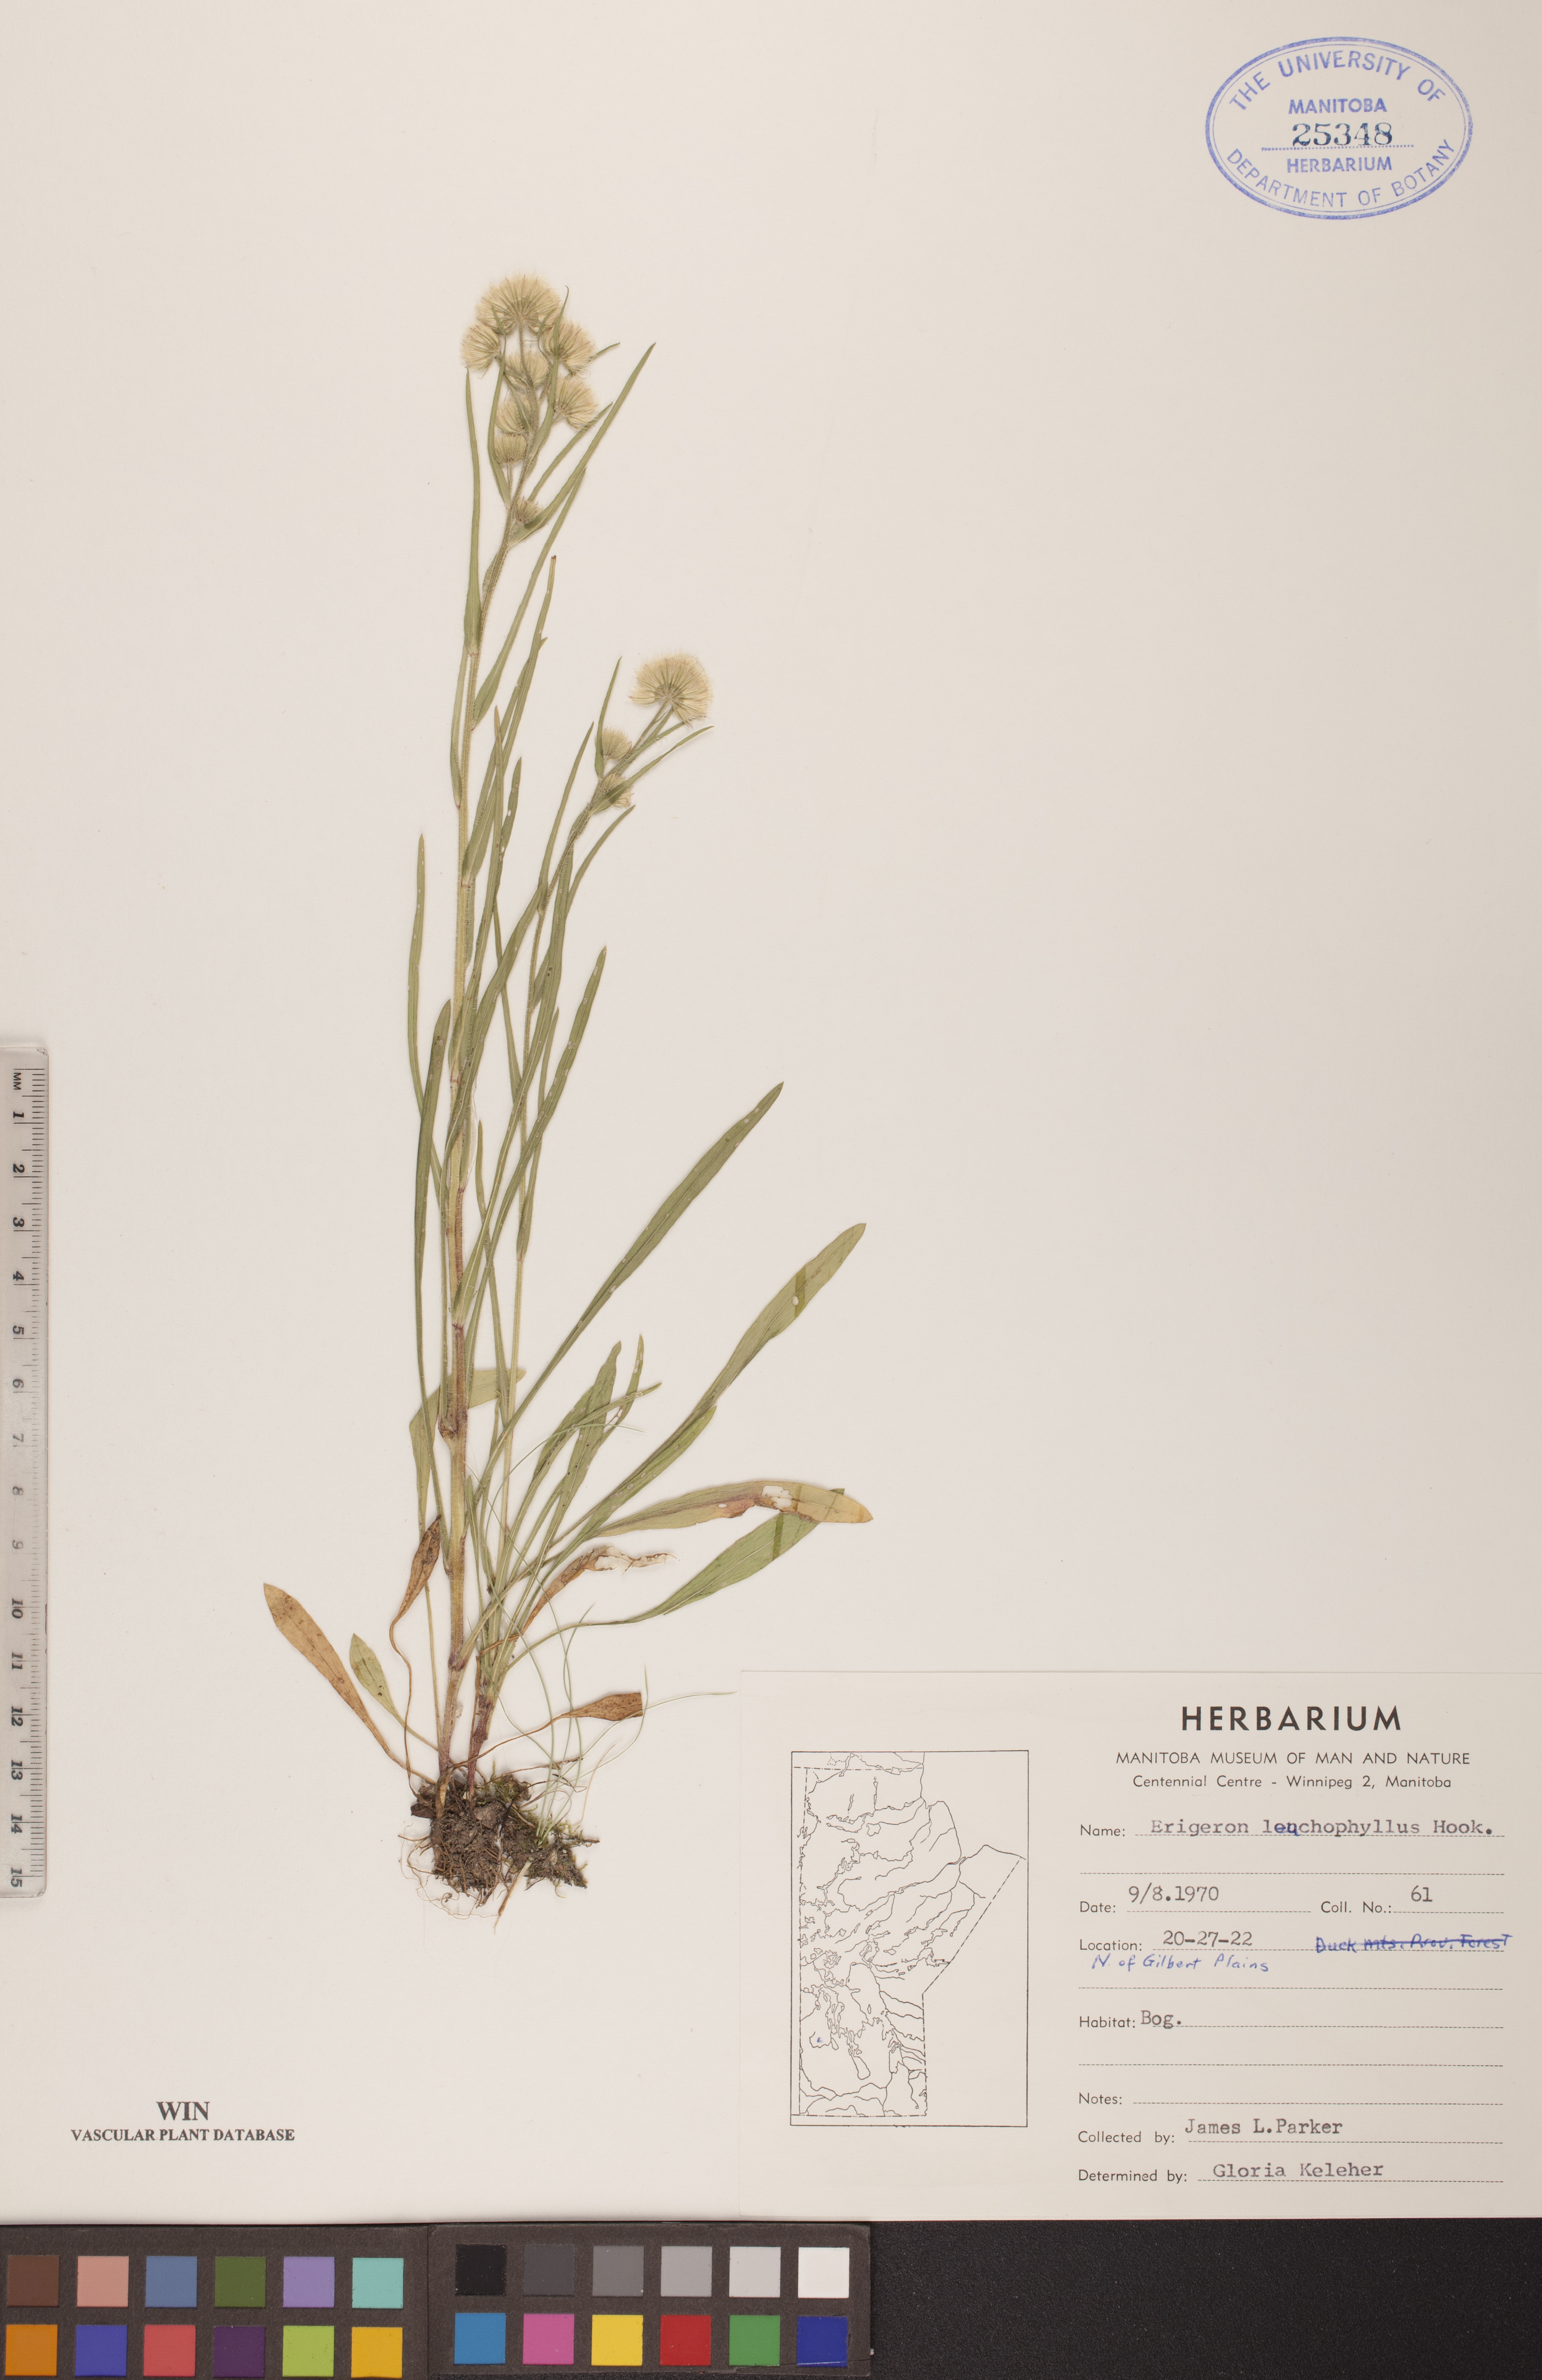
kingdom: Plantae
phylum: Tracheophyta
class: Magnoliopsida
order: Asterales
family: Asteraceae
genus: Erigeron
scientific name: Erigeron lonchophyllus
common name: Short-ray fleabane
